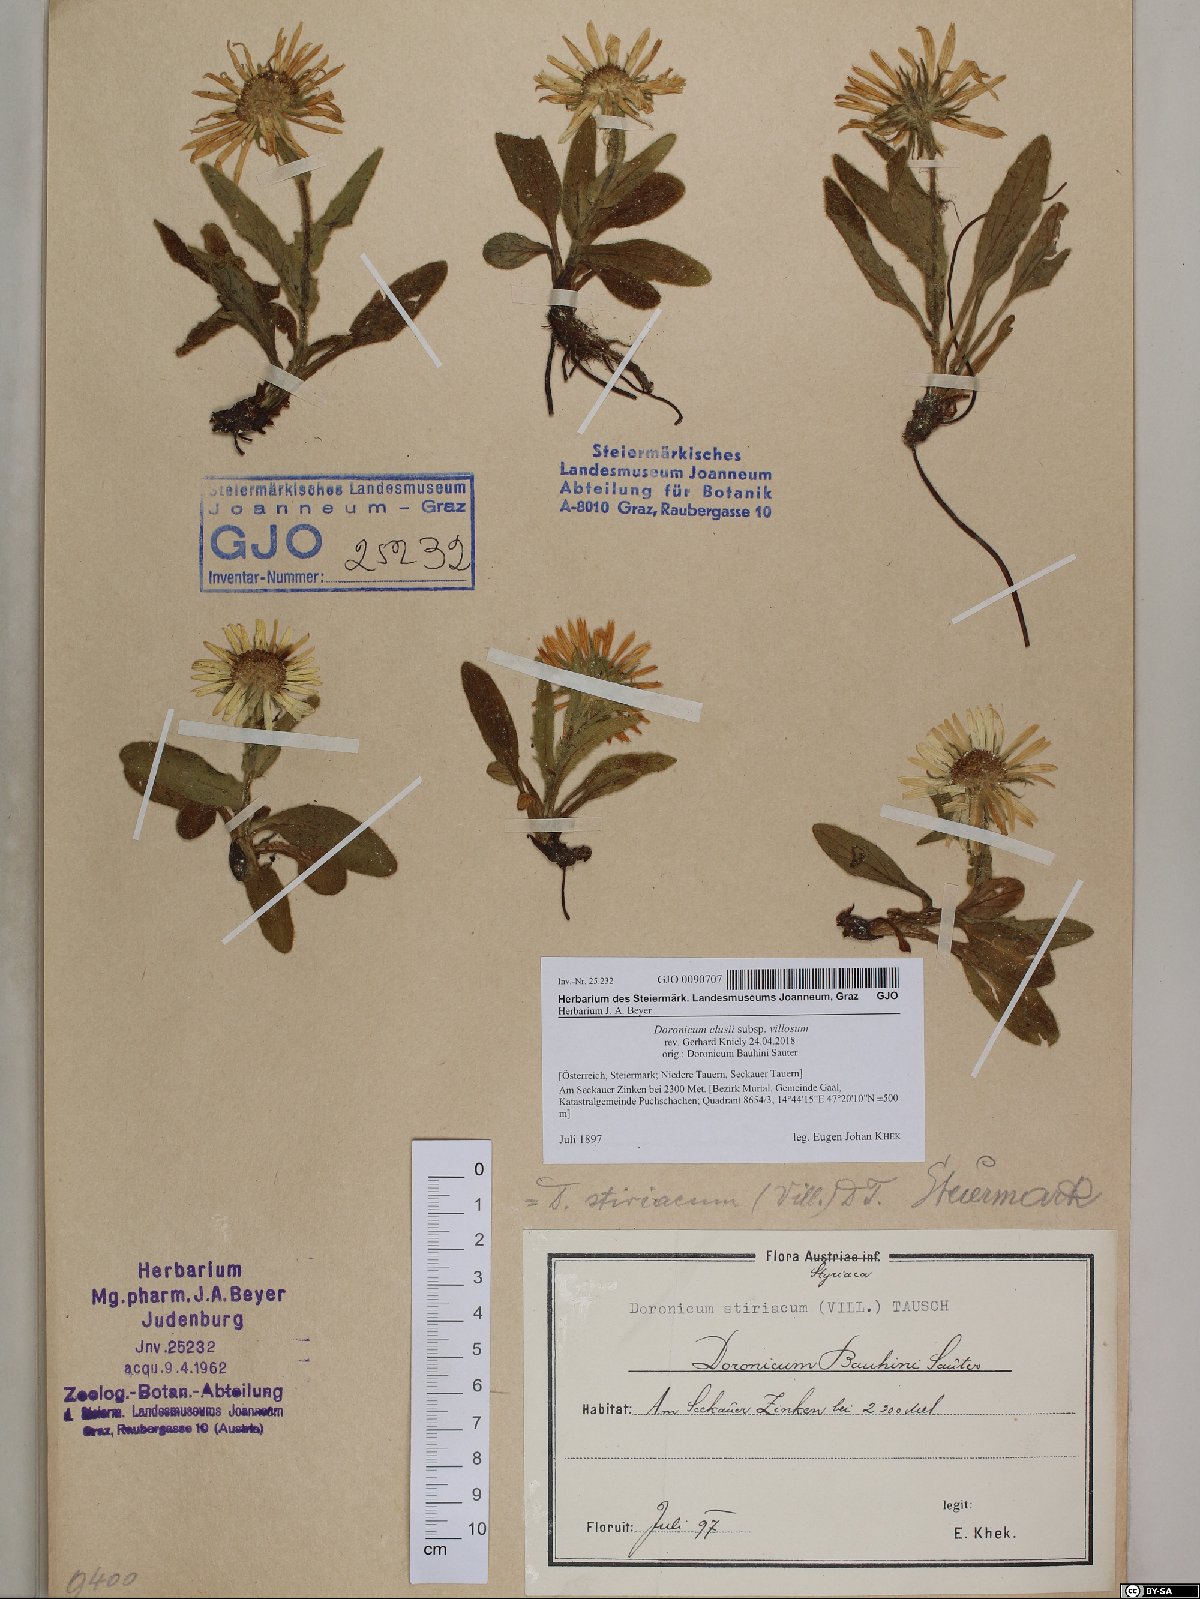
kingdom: Plantae
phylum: Tracheophyta
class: Magnoliopsida
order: Asterales
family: Asteraceae
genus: Doronicum
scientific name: Doronicum clusii
